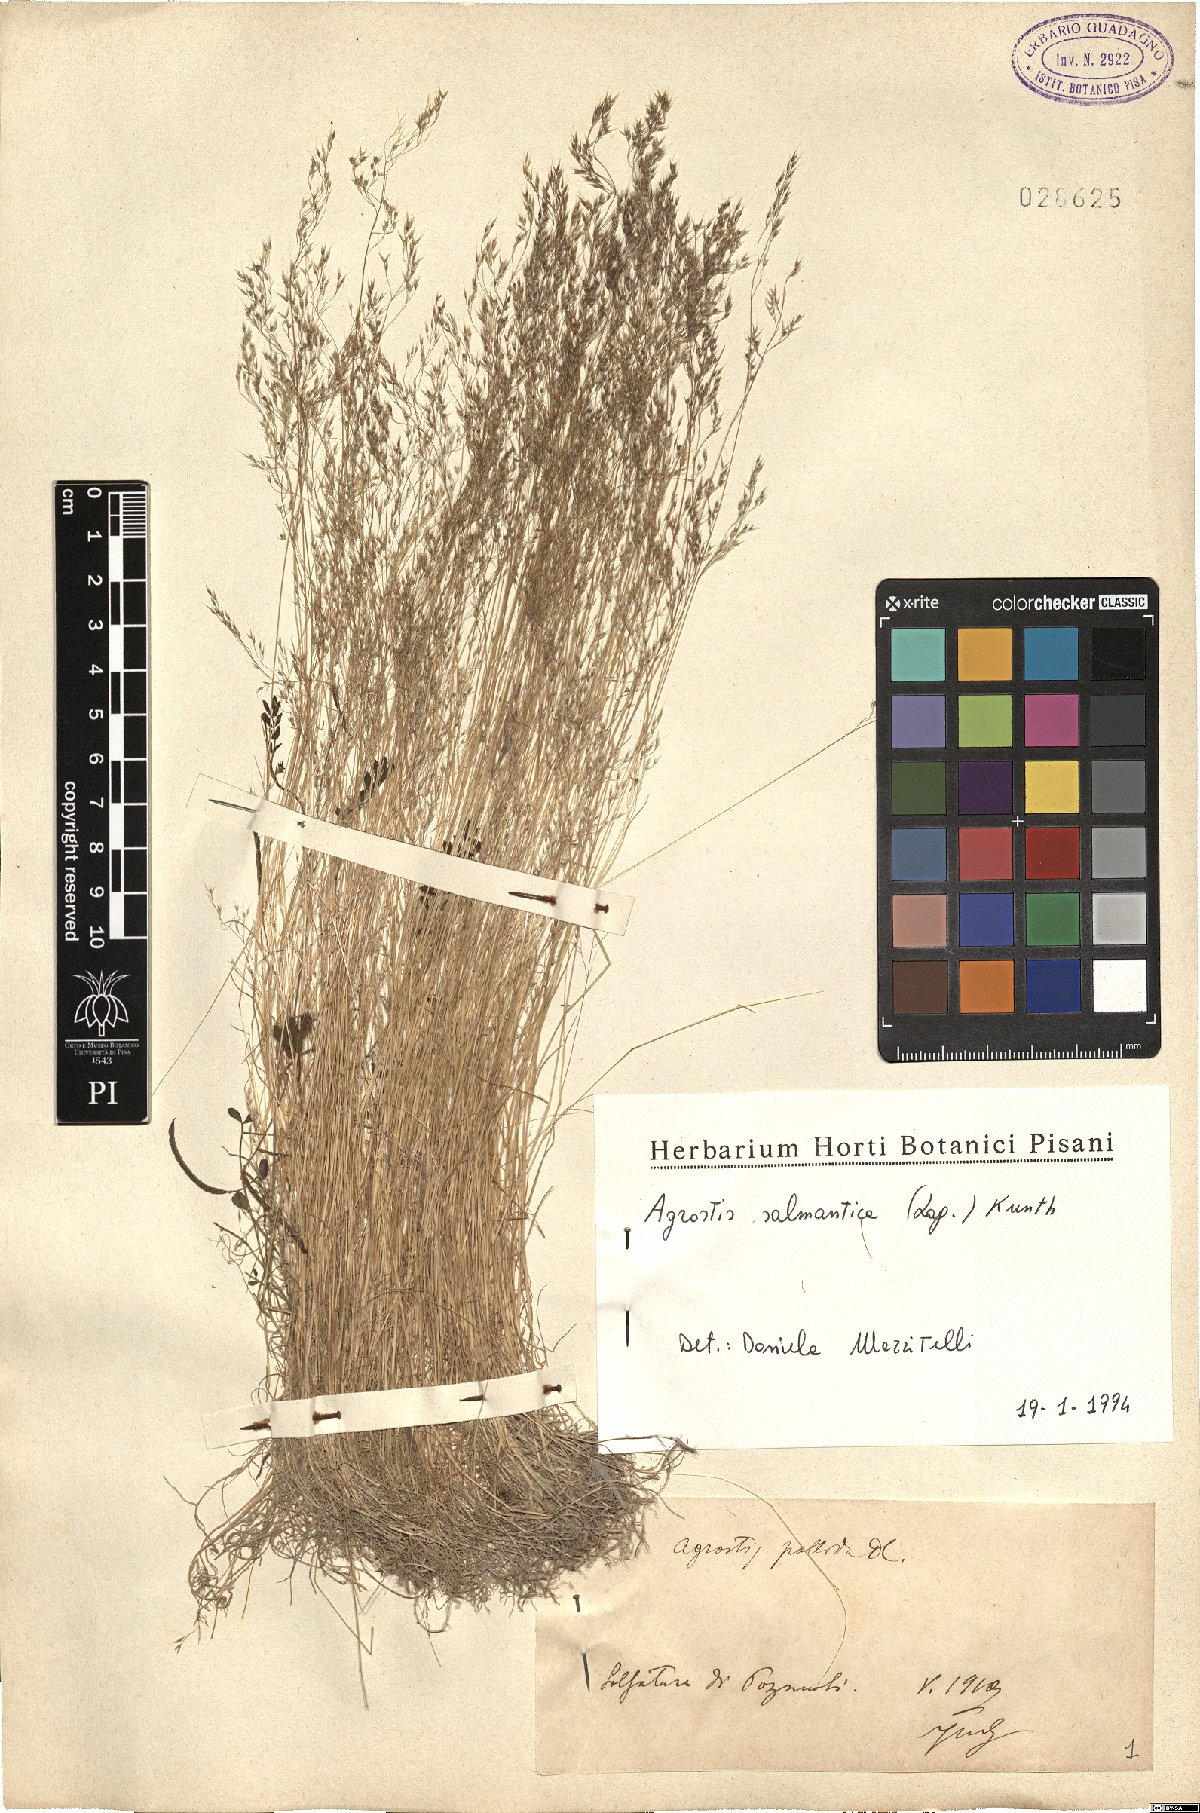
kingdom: Plantae
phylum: Tracheophyta
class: Liliopsida
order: Poales
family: Poaceae
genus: Agrostis
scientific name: Agrostis pourretii
